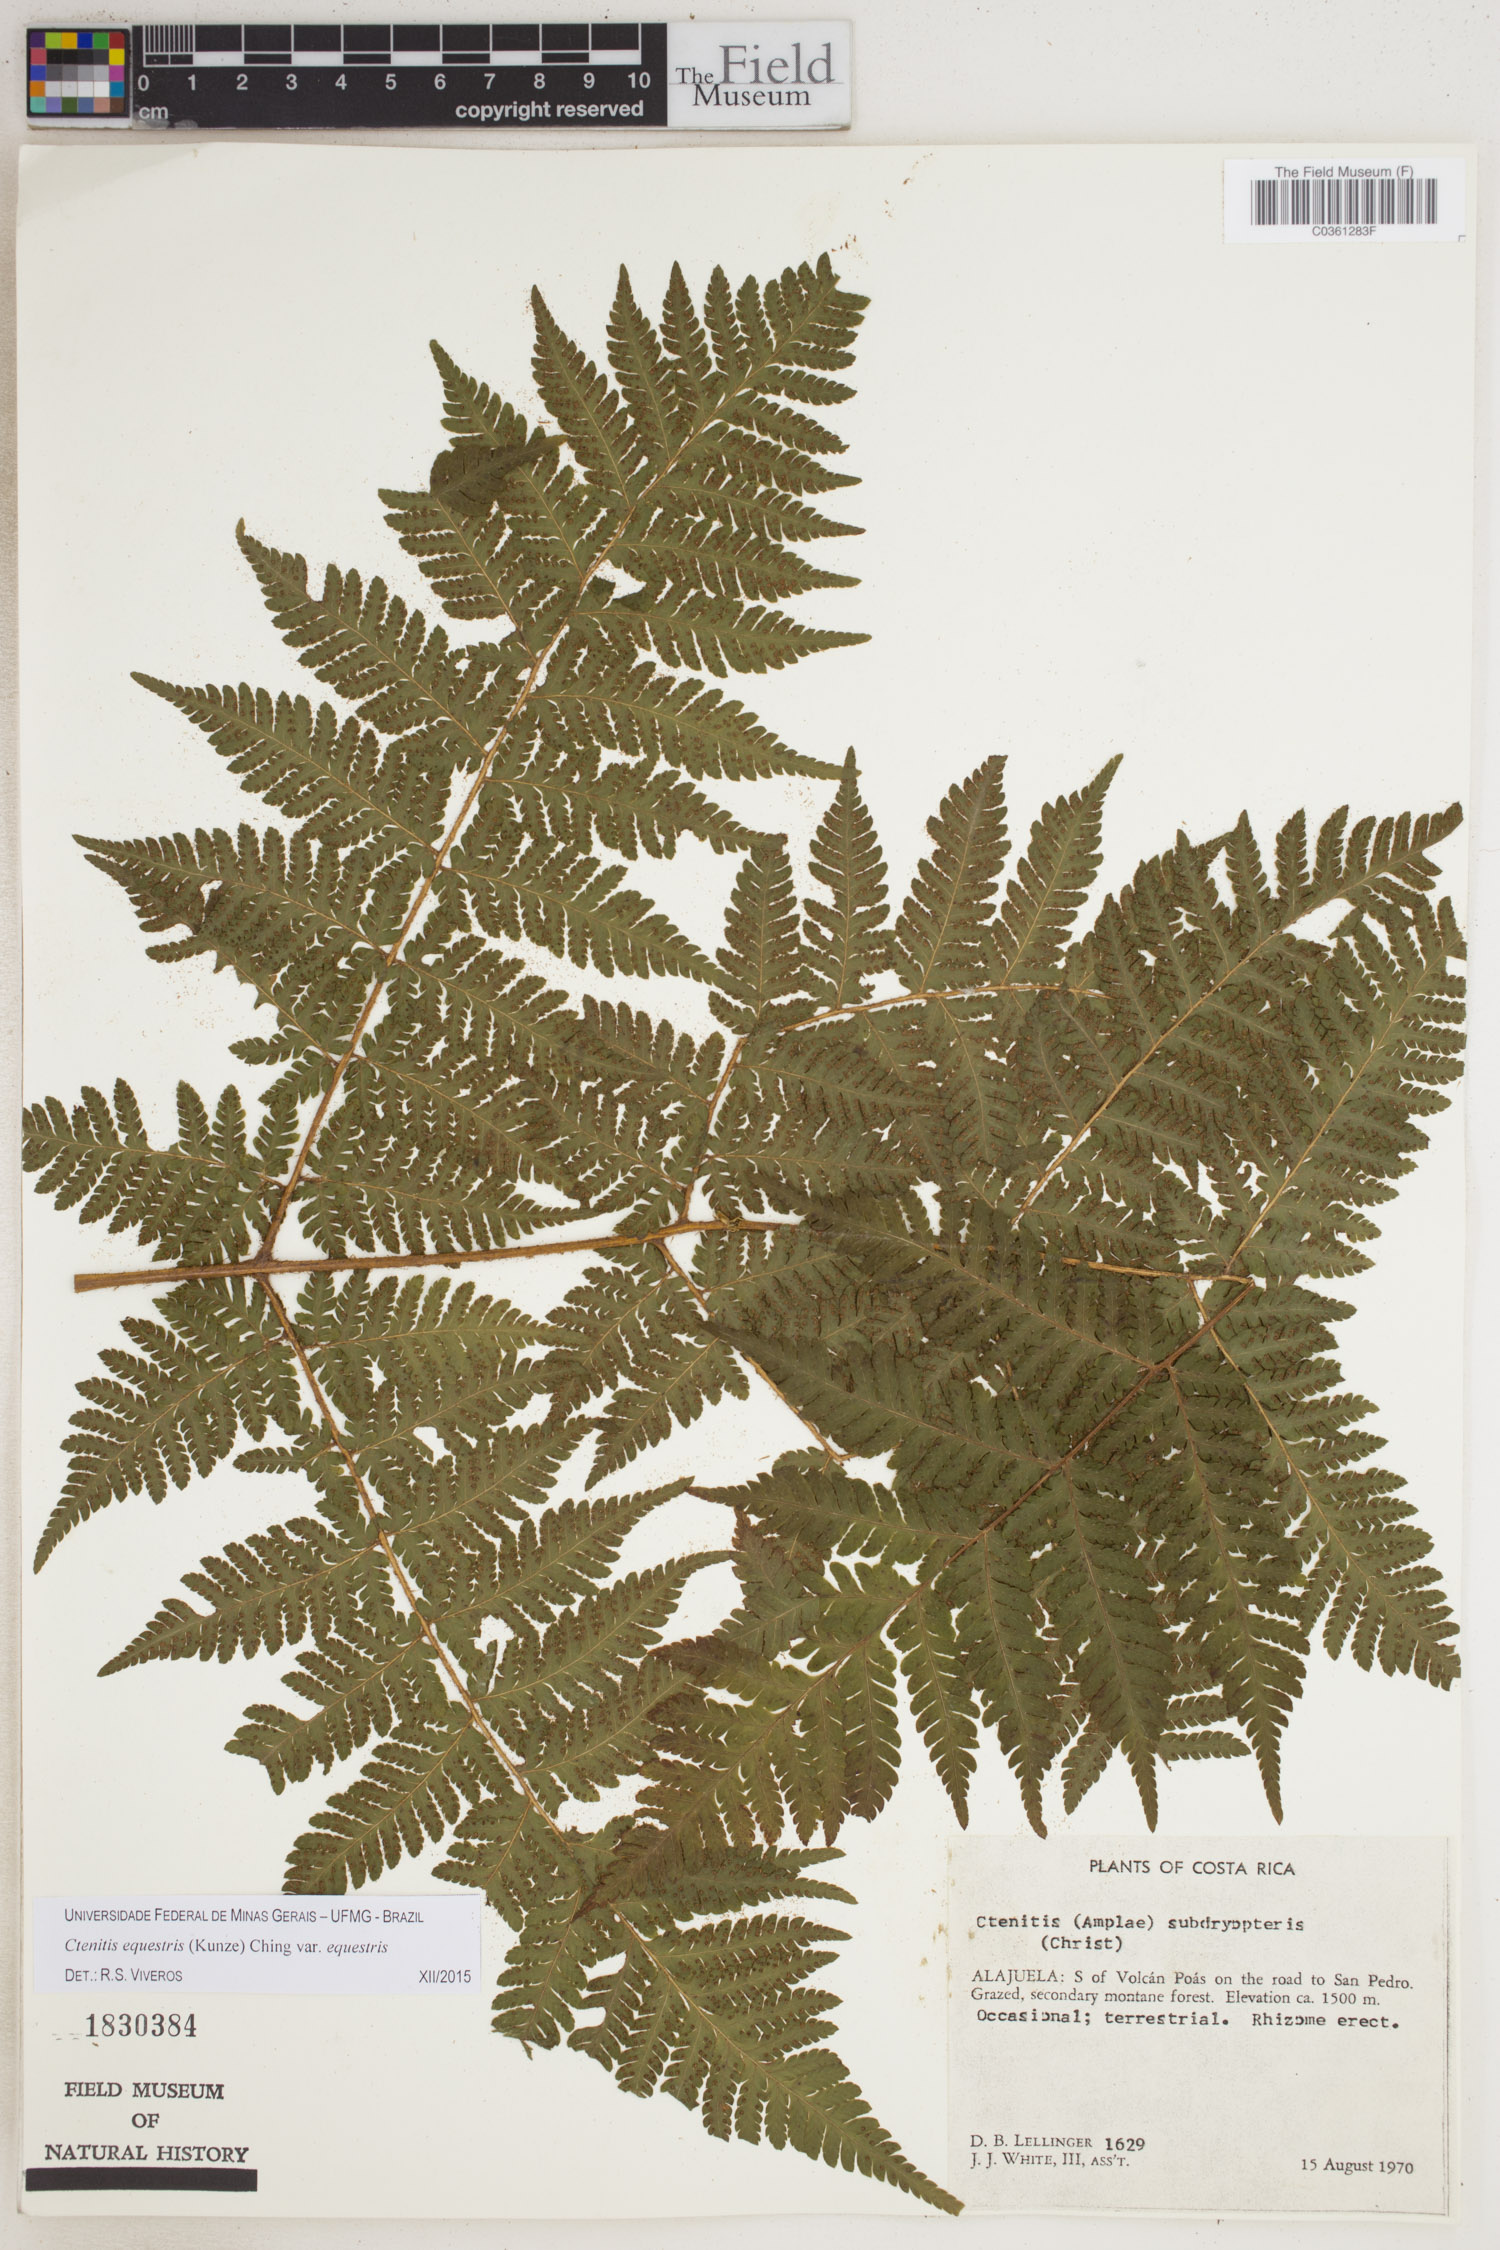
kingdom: Plantae
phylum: Tracheophyta
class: Polypodiopsida
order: Polypodiales
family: Dryopteridaceae
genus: Ctenitis
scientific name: Ctenitis equestris
